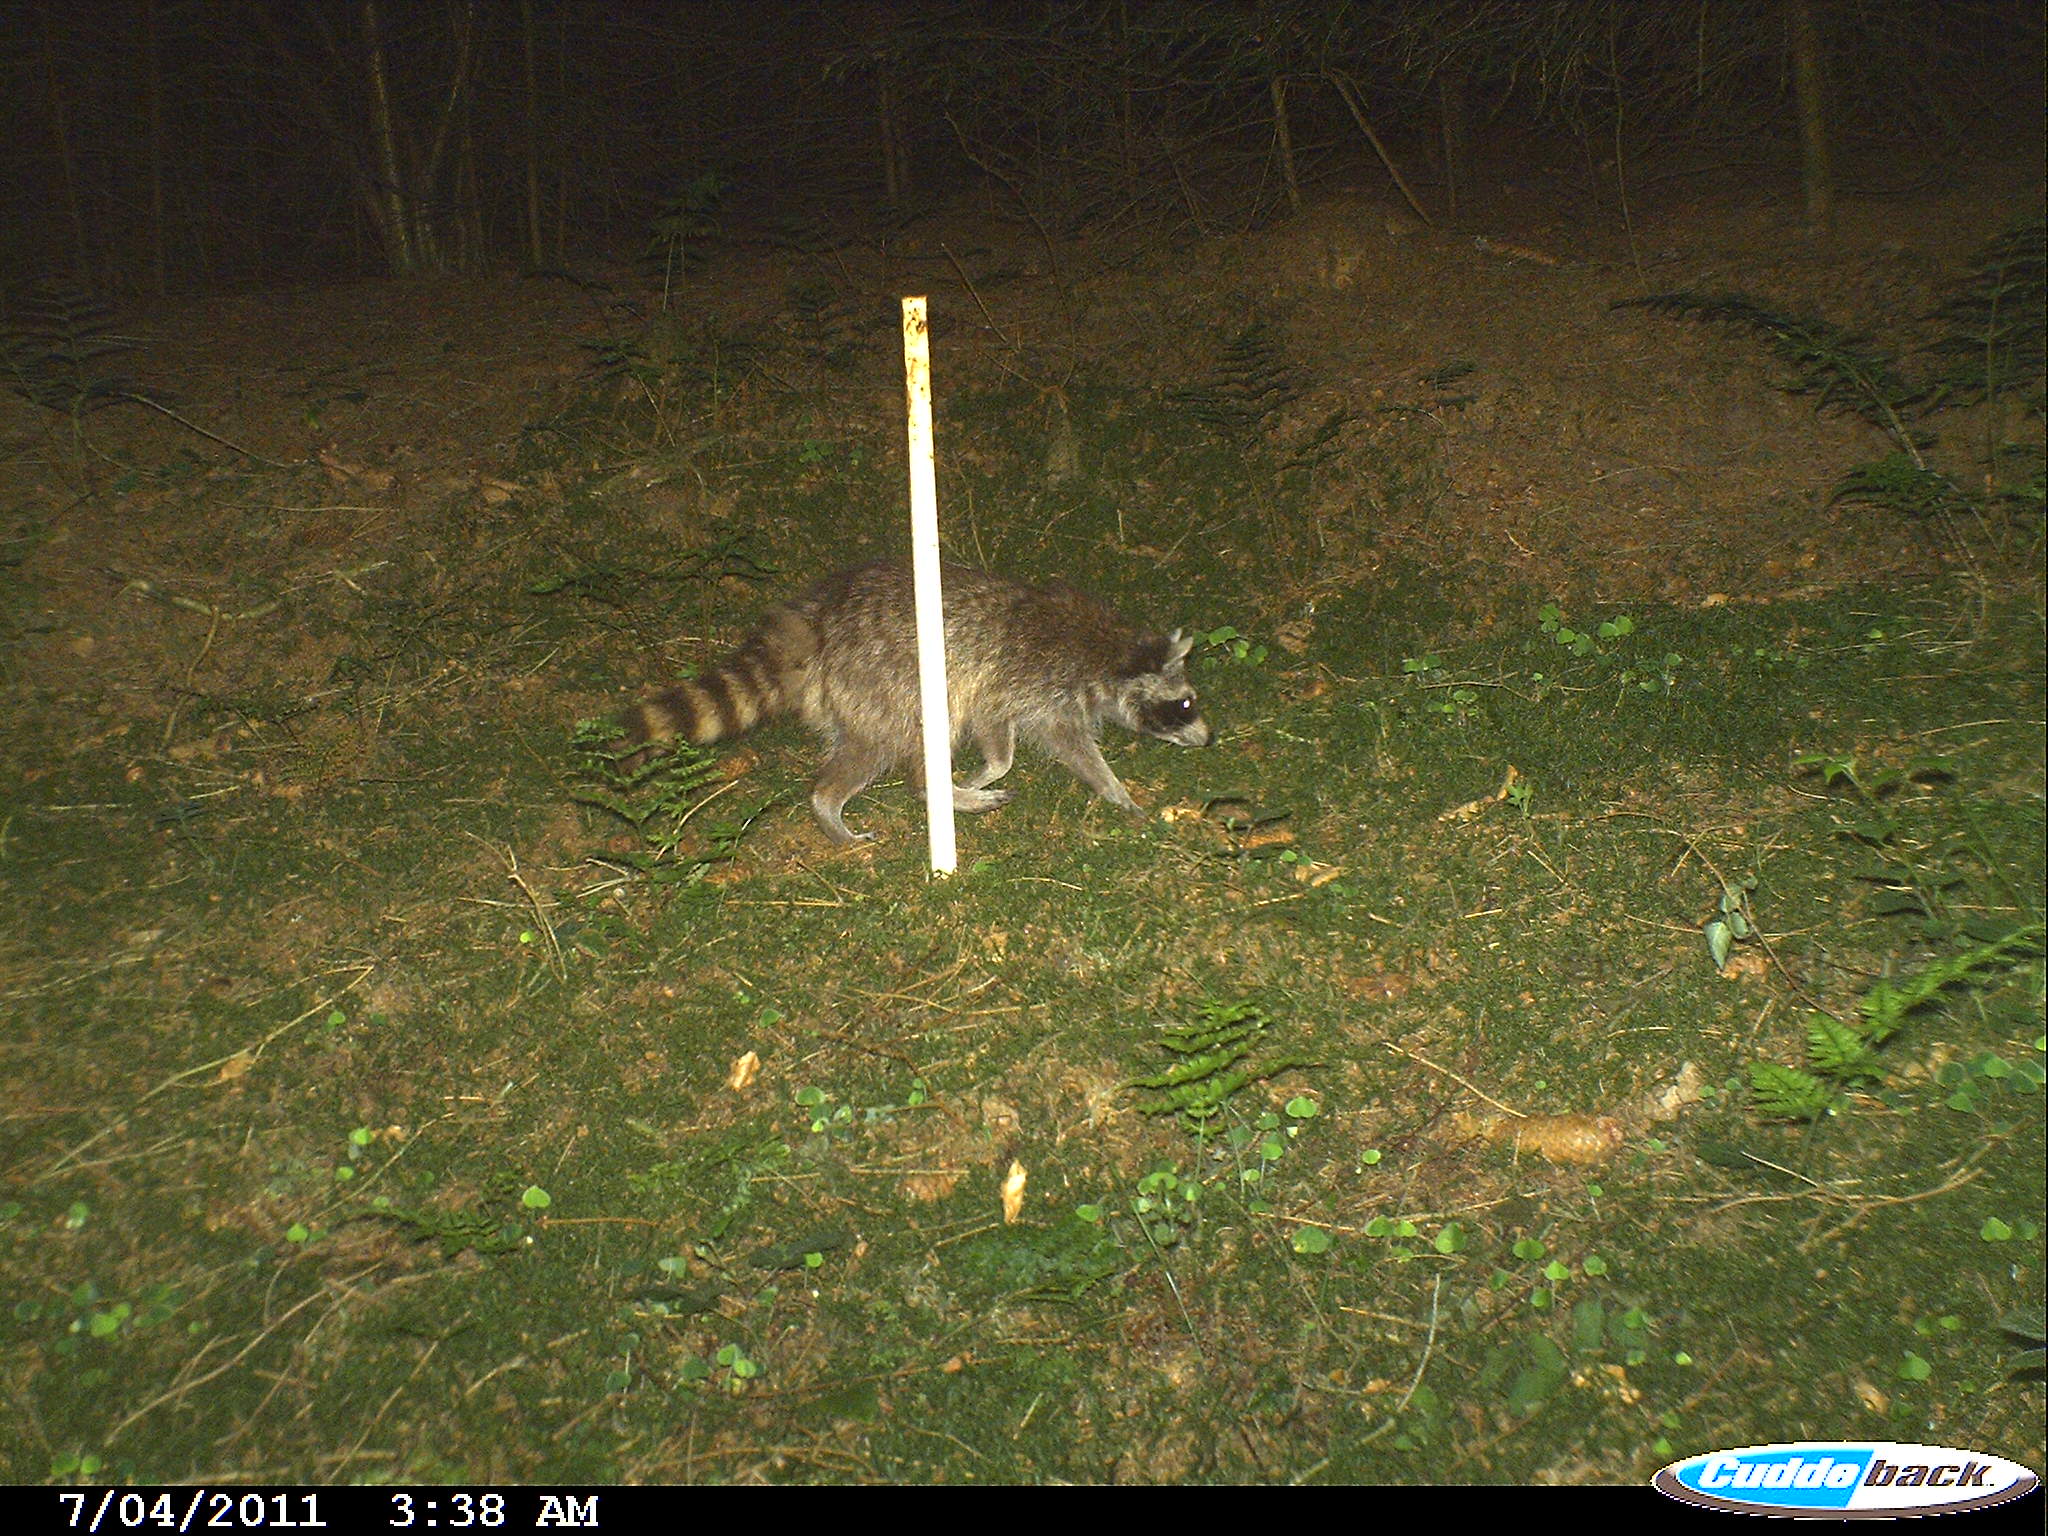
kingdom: Animalia
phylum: Chordata
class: Mammalia
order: Carnivora
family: Procyonidae
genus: Procyon
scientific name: Procyon lotor
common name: Raccoon
